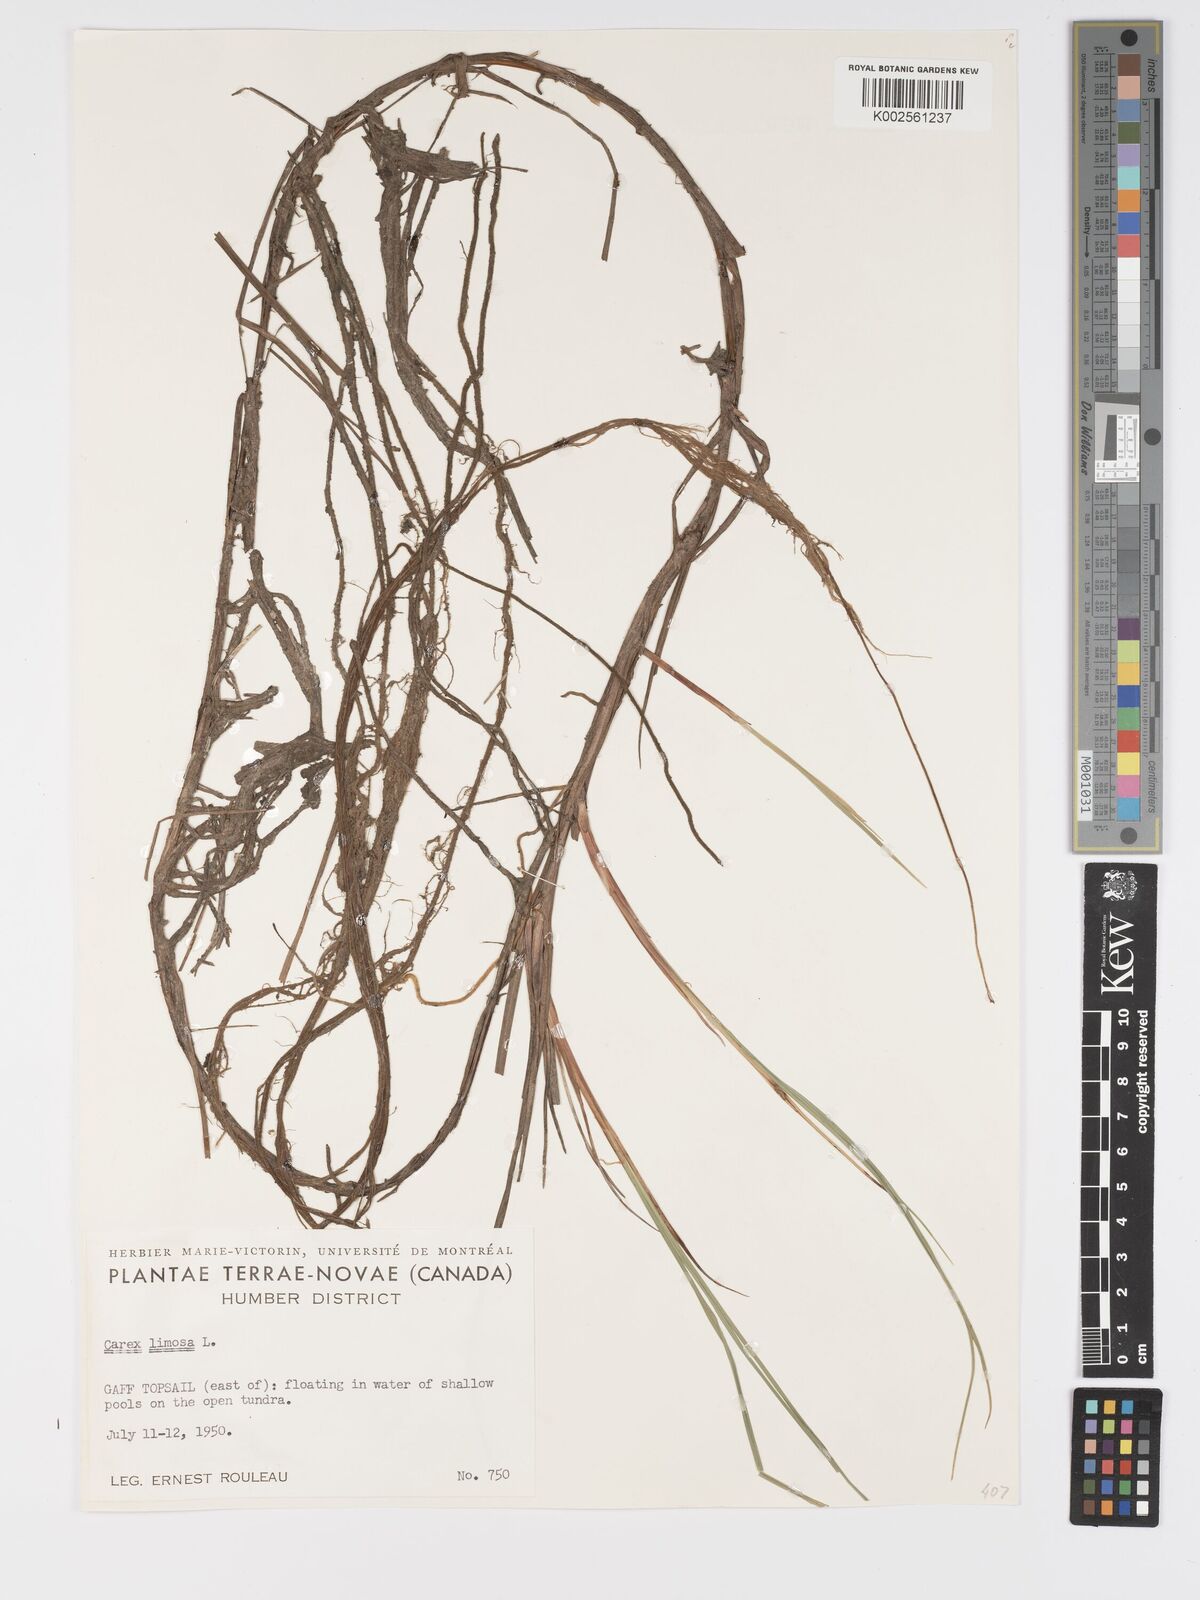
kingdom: Plantae
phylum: Tracheophyta
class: Liliopsida
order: Poales
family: Cyperaceae
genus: Carex
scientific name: Carex limosa
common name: Bog sedge
